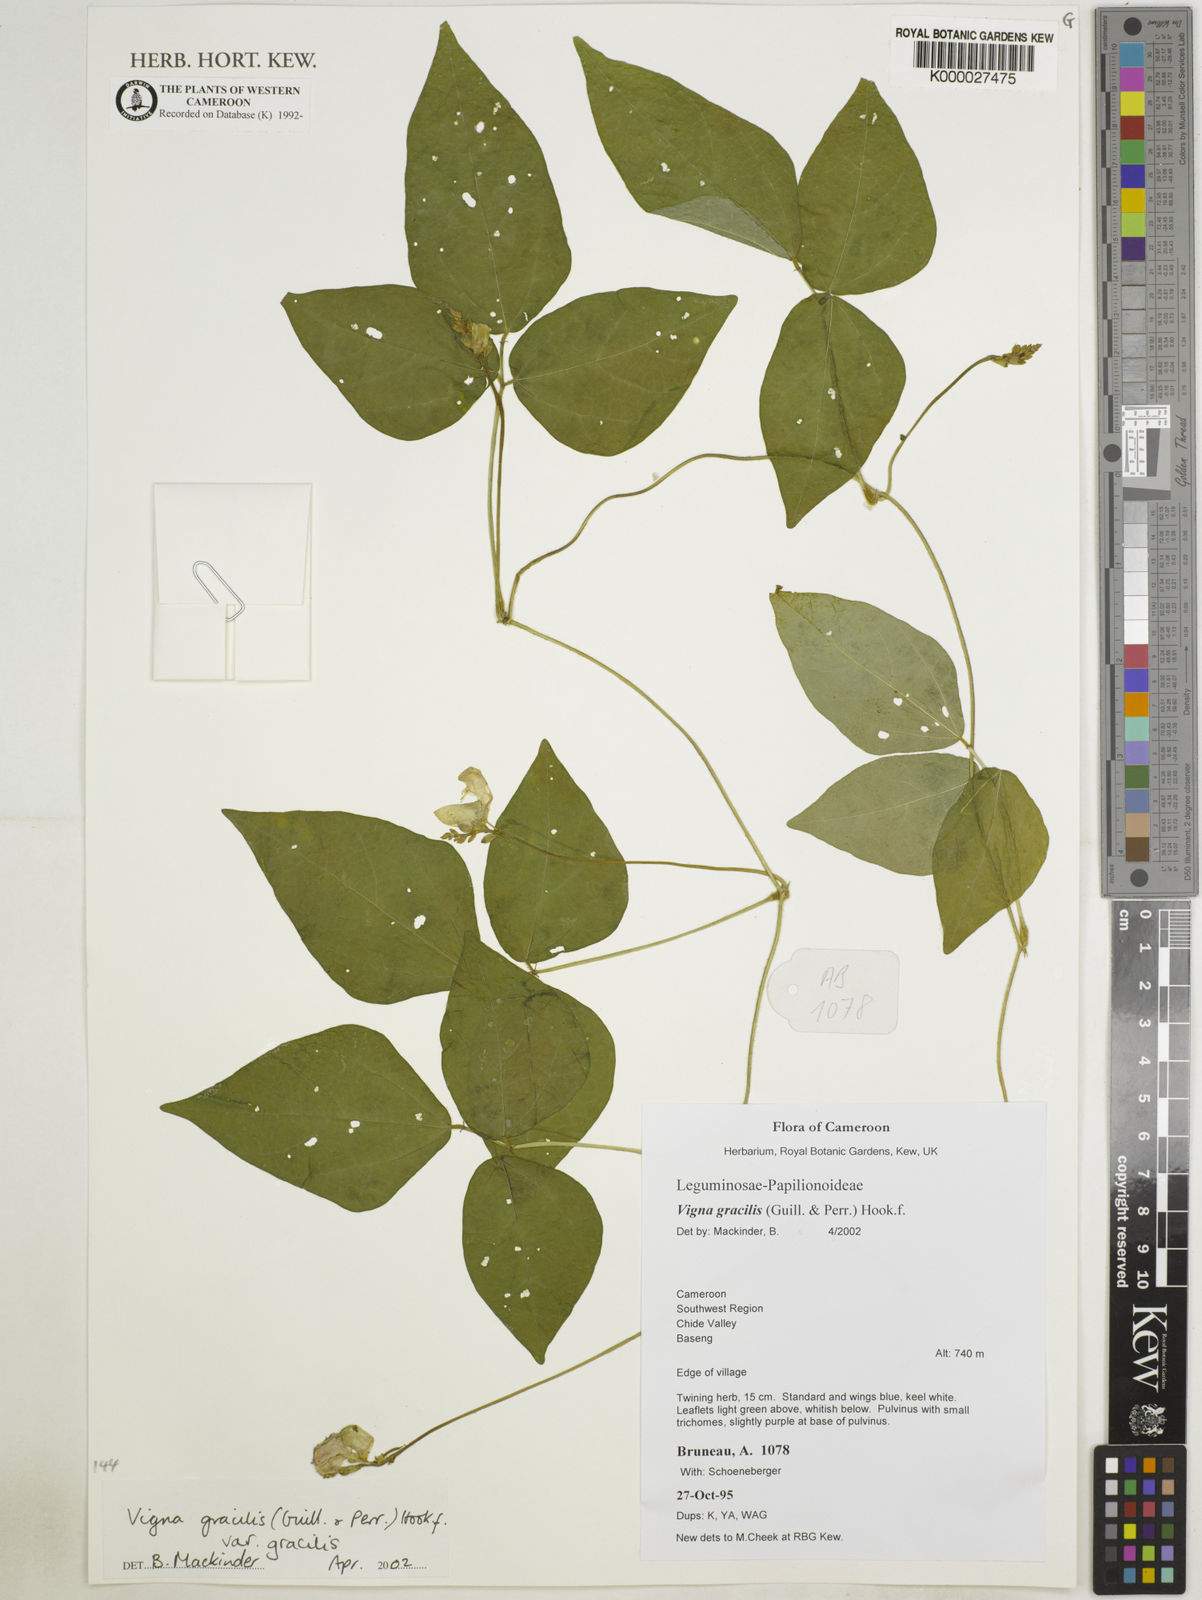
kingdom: Plantae
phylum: Tracheophyta
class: Magnoliopsida
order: Fabales
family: Fabaceae
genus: Vigna
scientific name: Vigna gracilis
